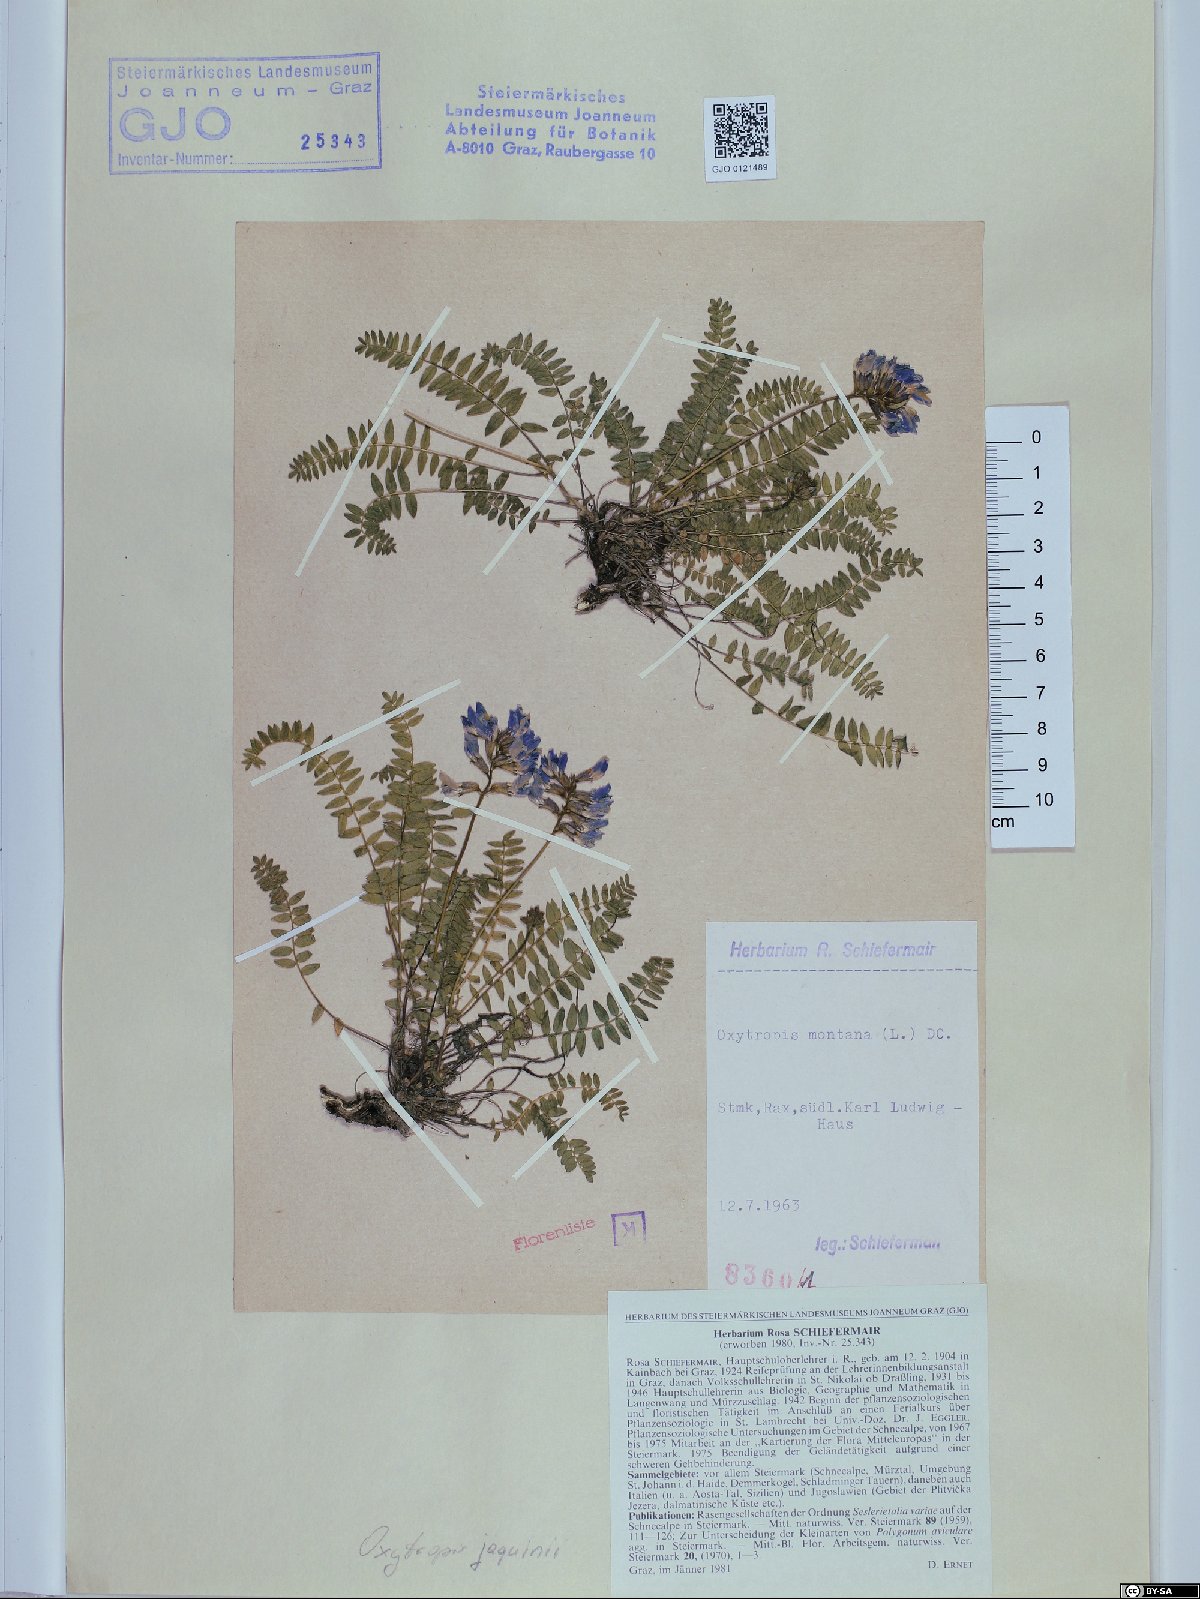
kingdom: Plantae
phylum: Tracheophyta
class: Magnoliopsida
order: Fabales
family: Fabaceae
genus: Oxytropis
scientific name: Oxytropis montana
